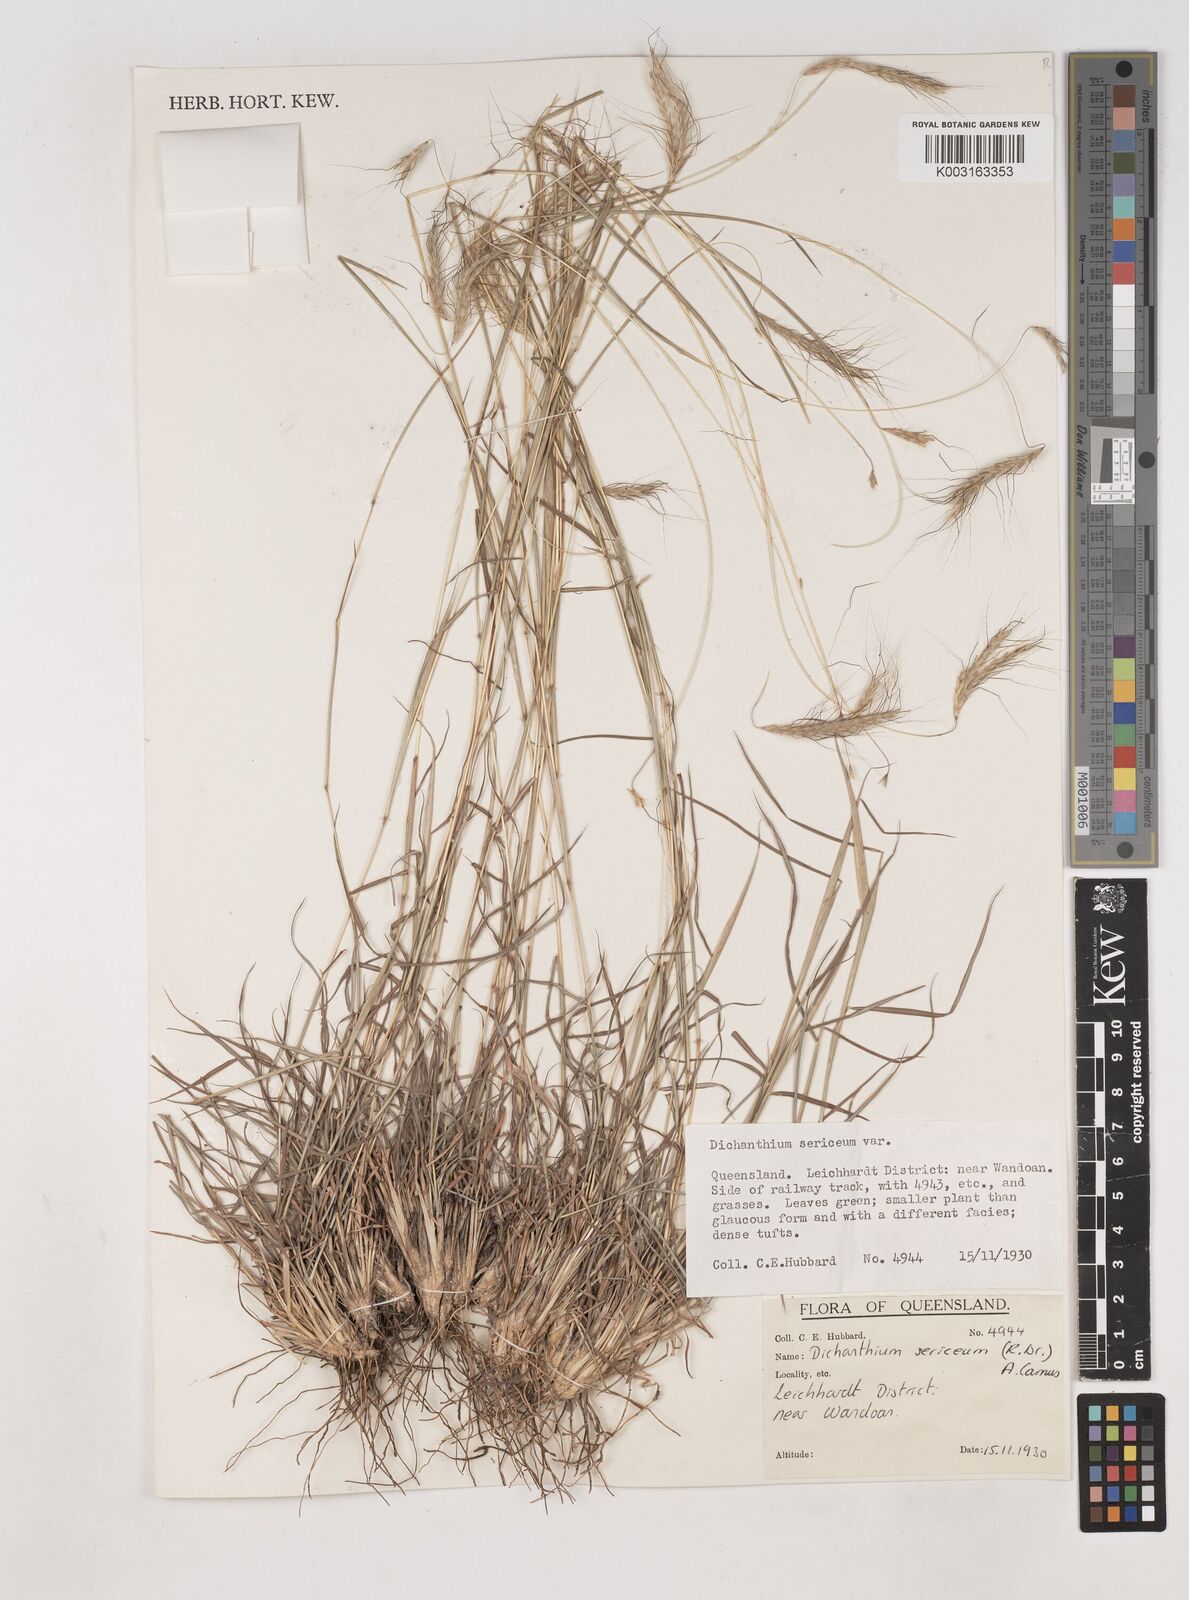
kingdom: Plantae
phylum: Tracheophyta
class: Liliopsida
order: Poales
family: Poaceae
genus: Dichanthium
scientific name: Dichanthium sericeum
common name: Silky bluestem
